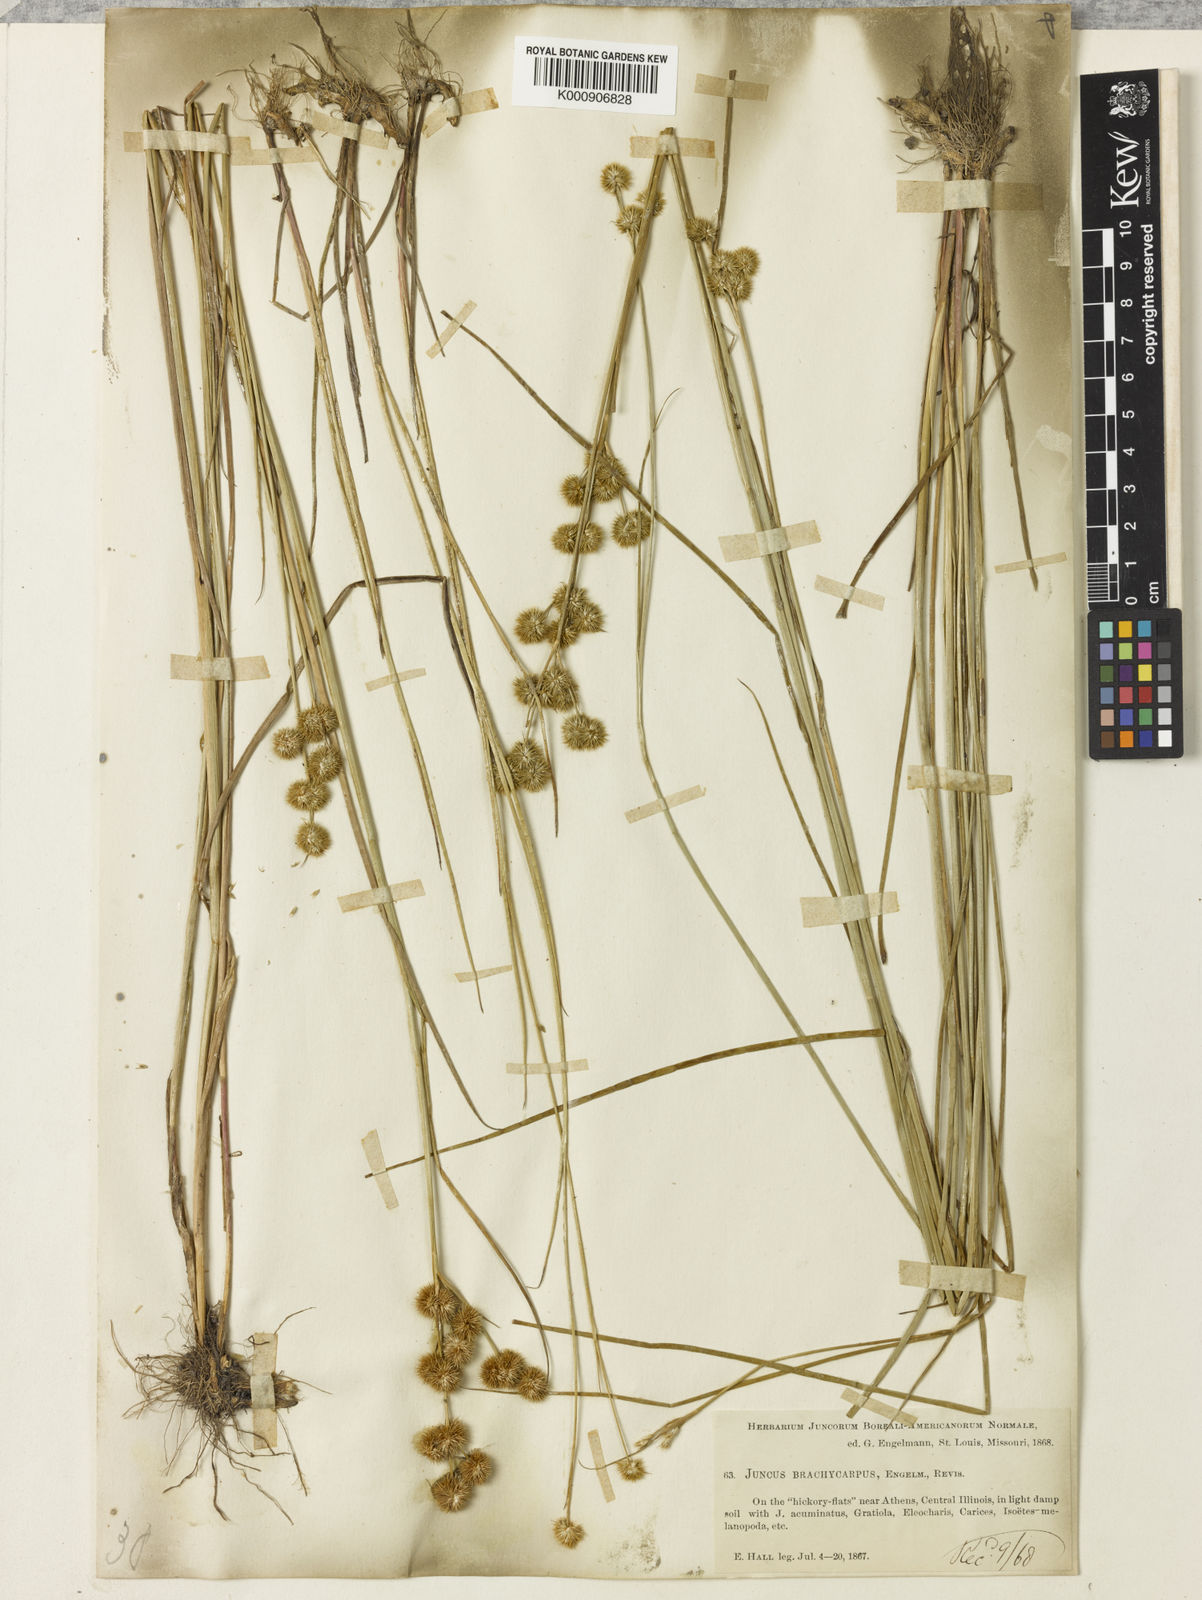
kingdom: Plantae
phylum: Tracheophyta
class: Liliopsida
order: Poales
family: Juncaceae
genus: Juncus
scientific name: Juncus brachycarpus
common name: Shore rush
